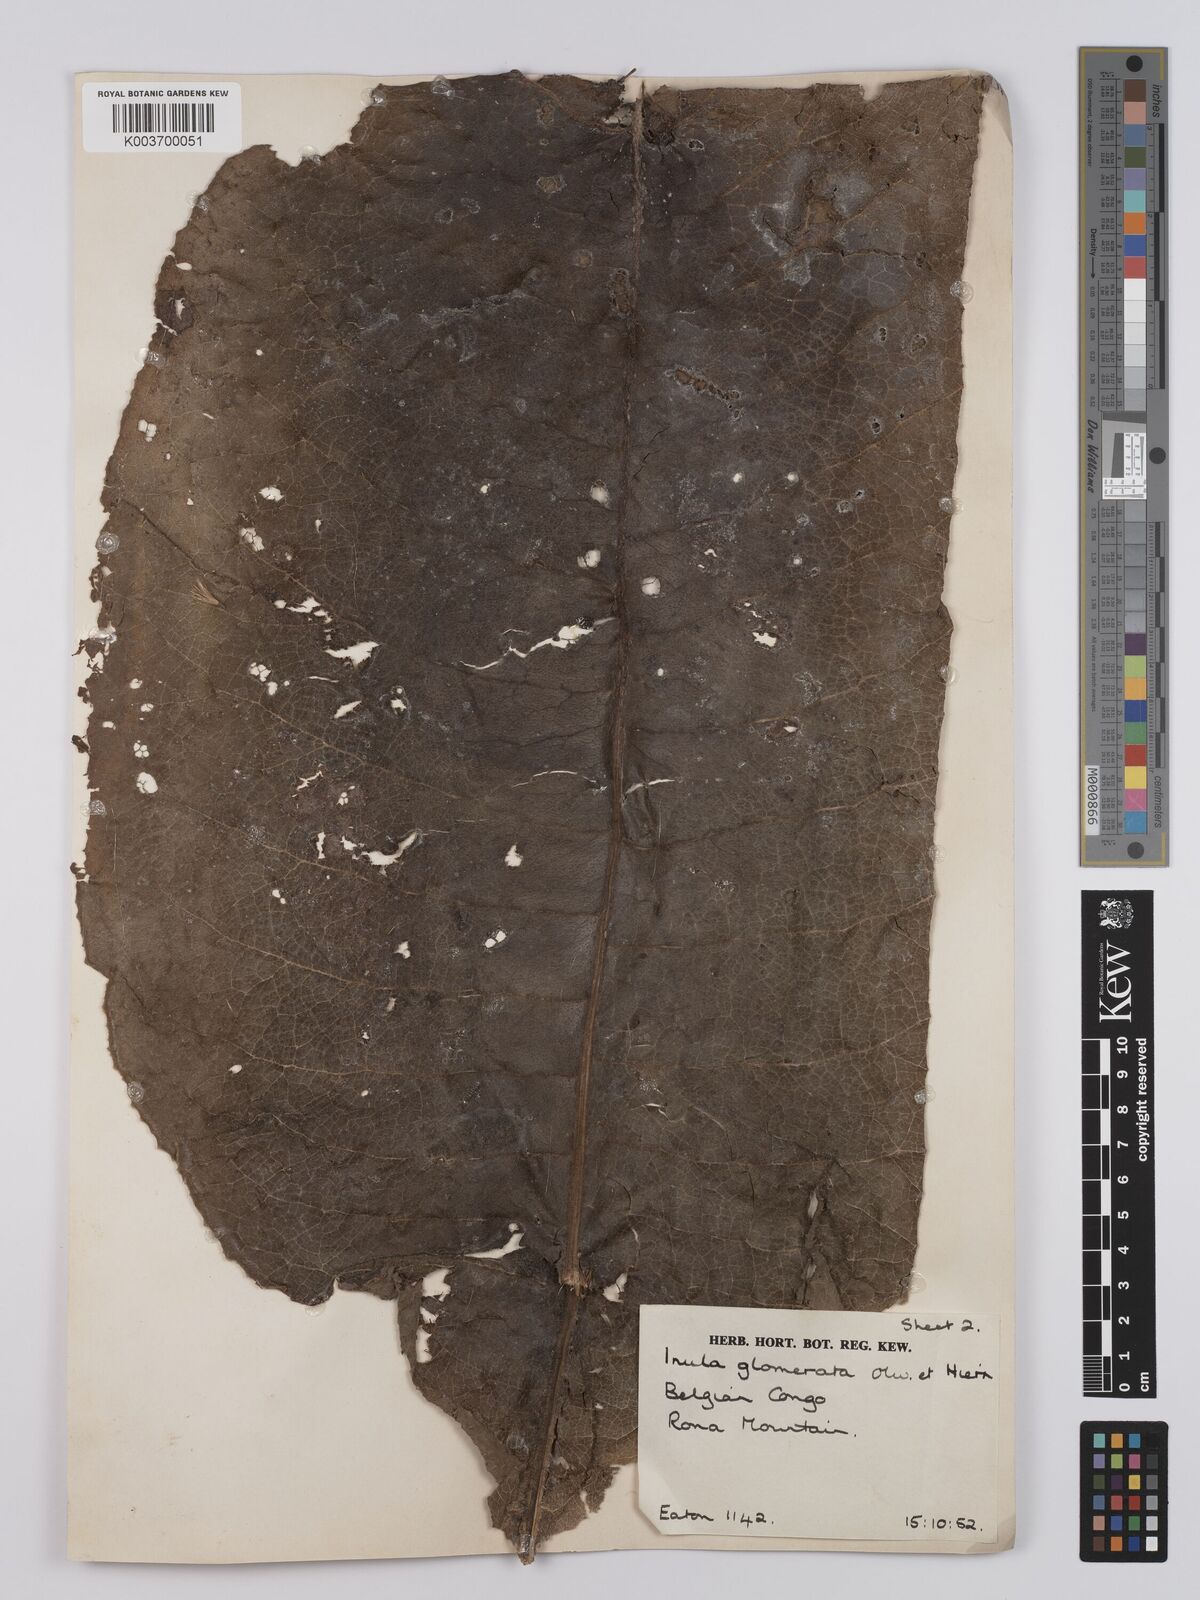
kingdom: Plantae
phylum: Tracheophyta
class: Magnoliopsida
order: Asterales
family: Asteraceae
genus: Inula
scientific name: Inula glomerata
